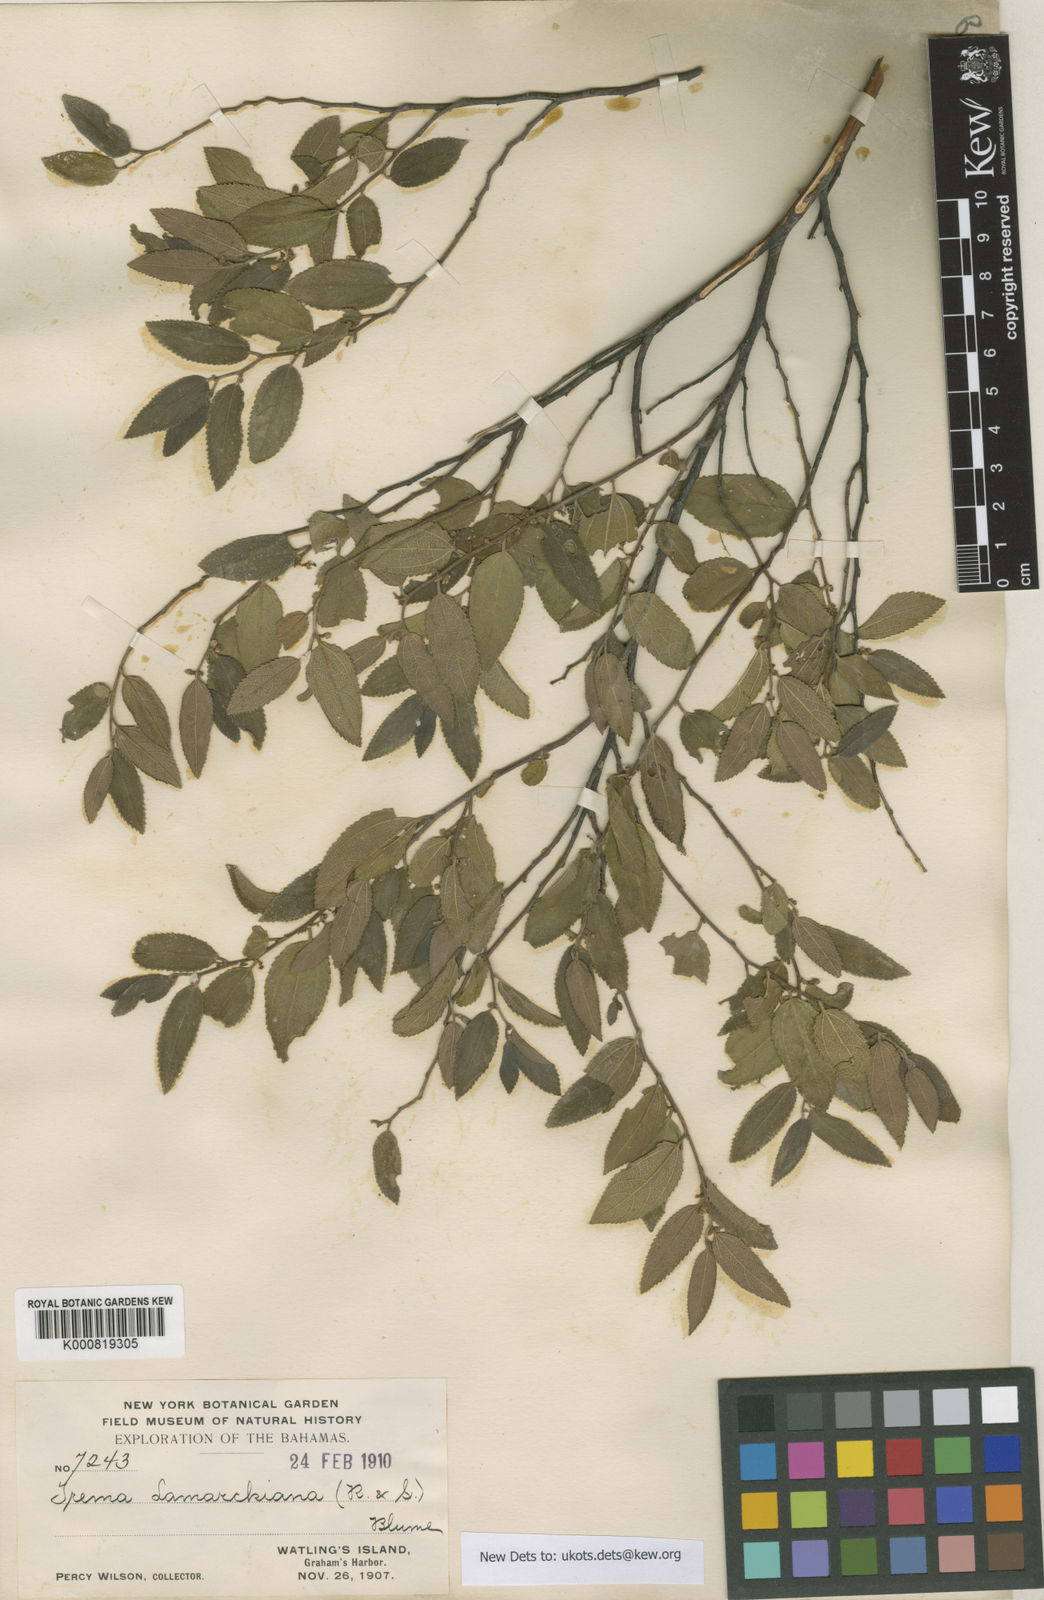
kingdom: Plantae
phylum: Tracheophyta
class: Magnoliopsida
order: Rosales
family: Cannabaceae
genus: Trema
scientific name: Trema lamarckianum
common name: Lamarck's trema
